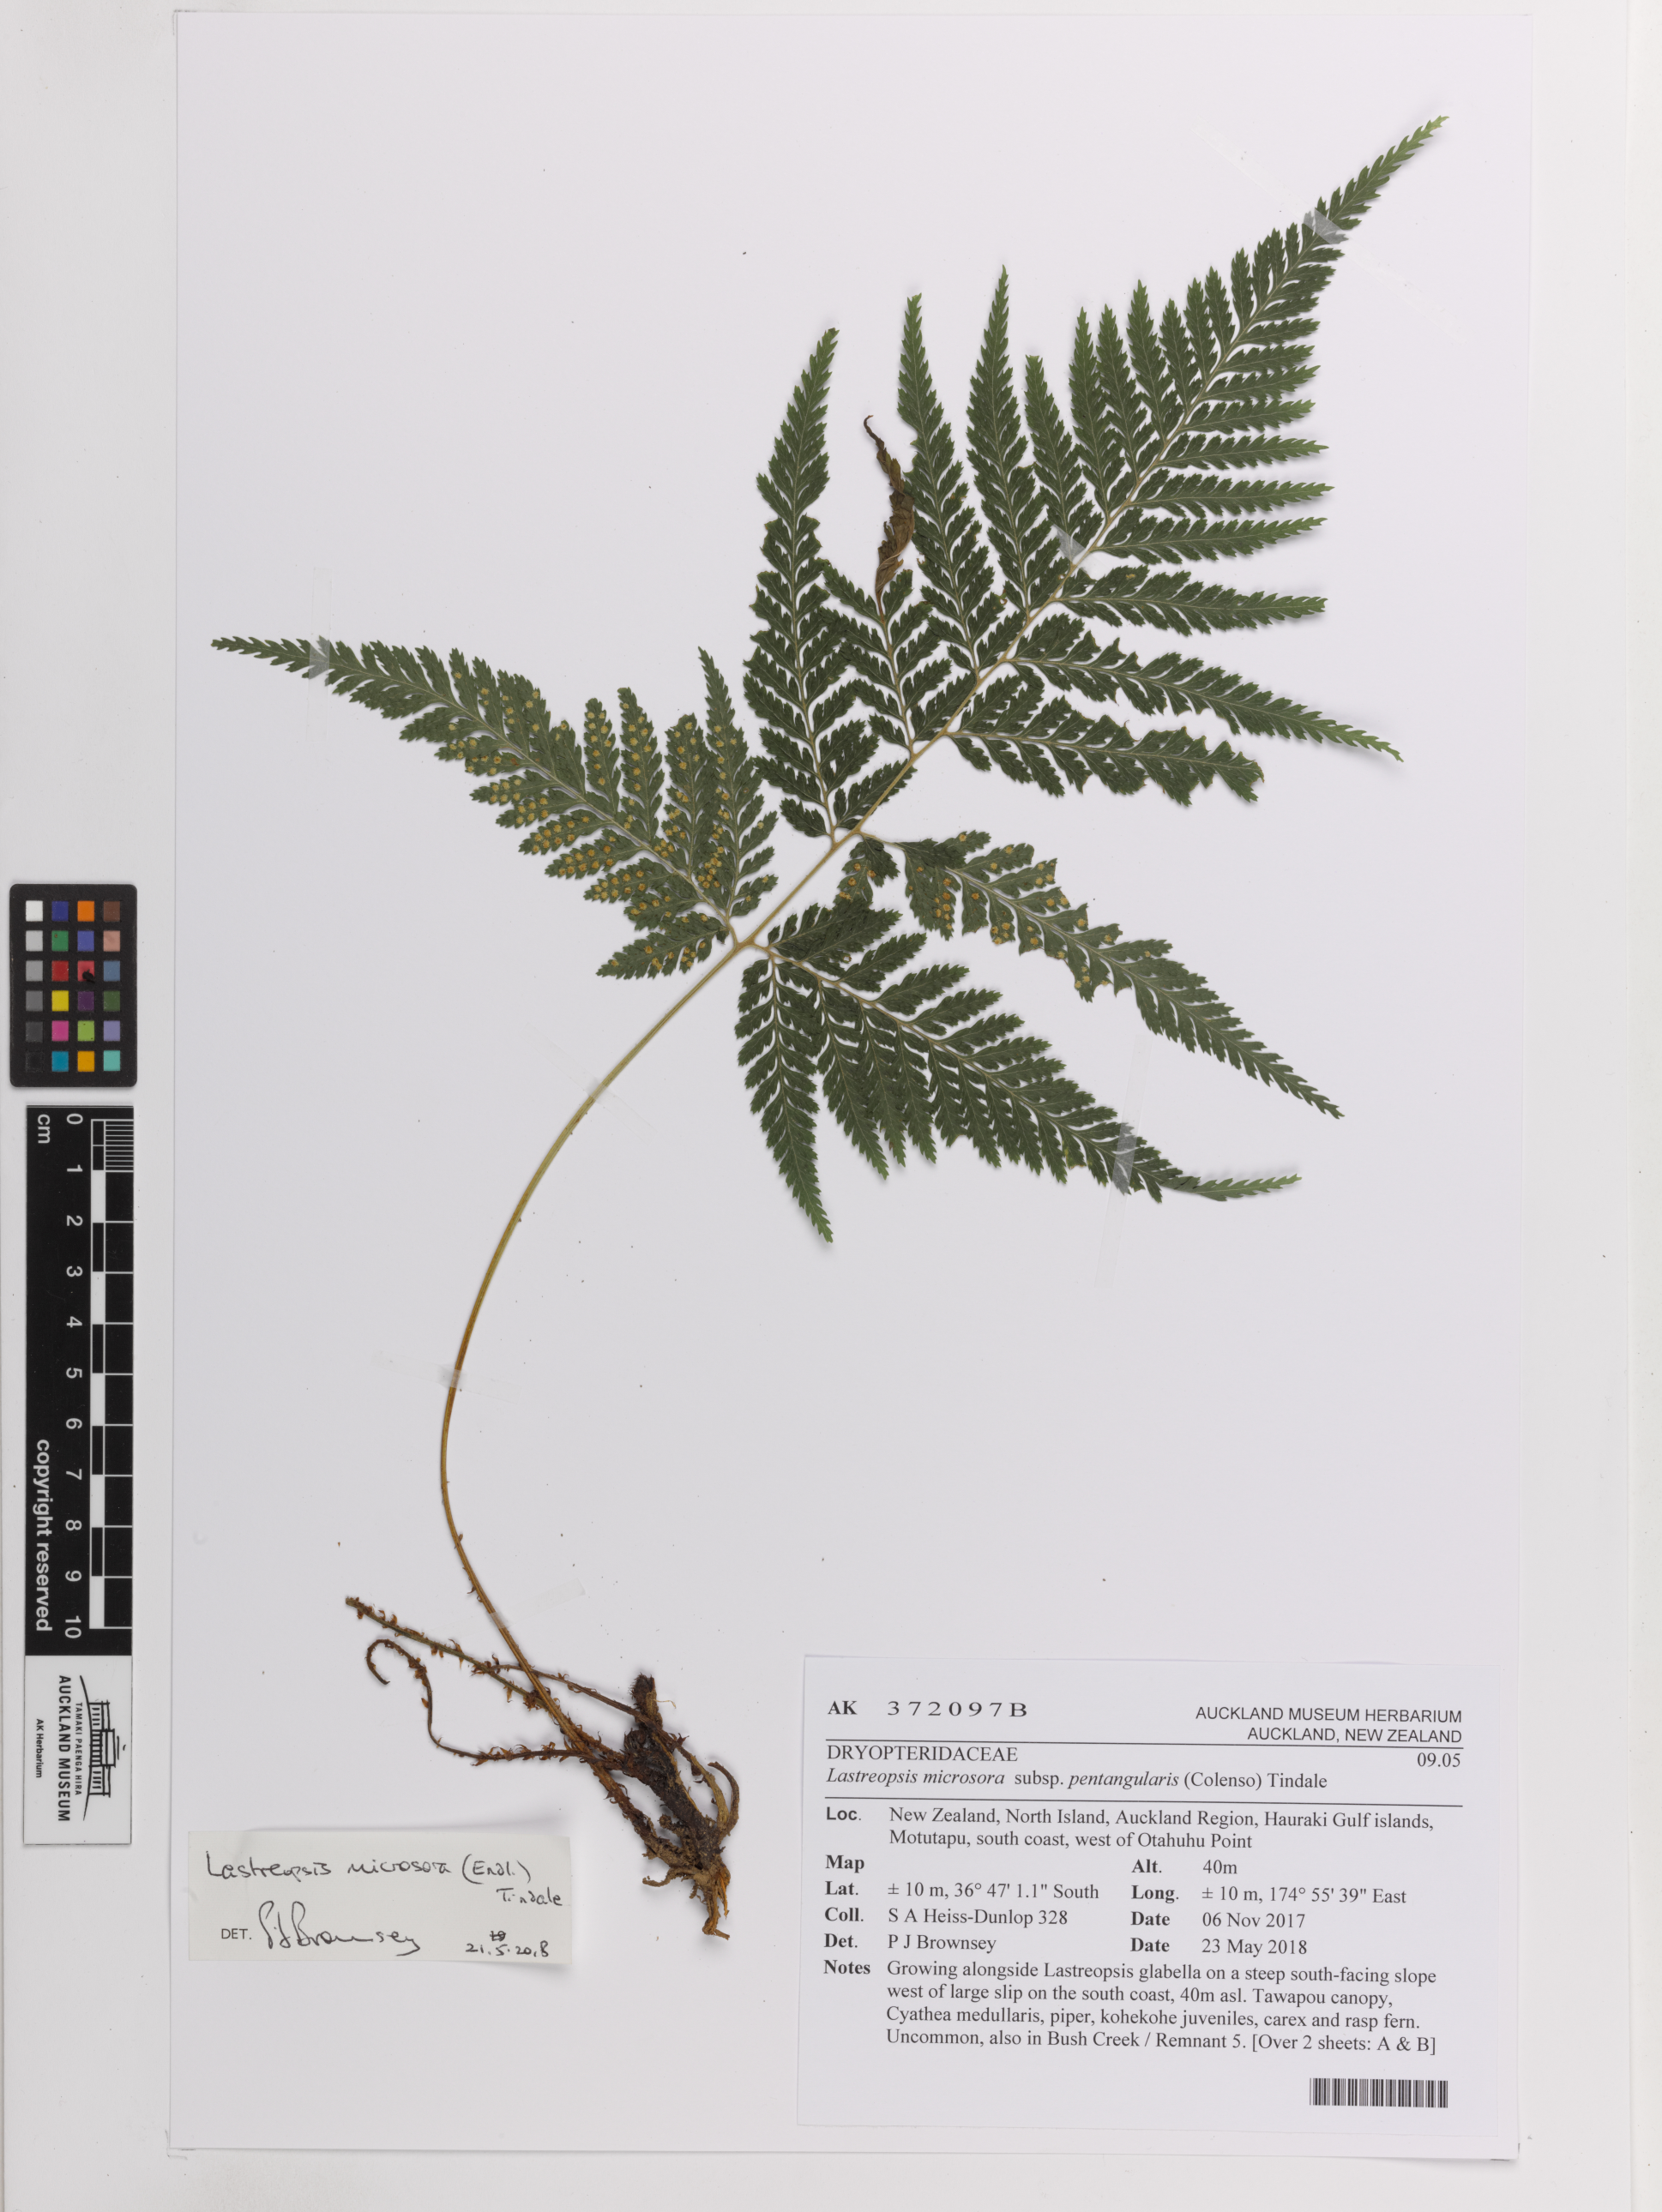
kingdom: Plantae
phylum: Tracheophyta
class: Polypodiopsida
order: Polypodiales
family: Dryopteridaceae
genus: Parapolystichum
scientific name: Parapolystichum microsorum
